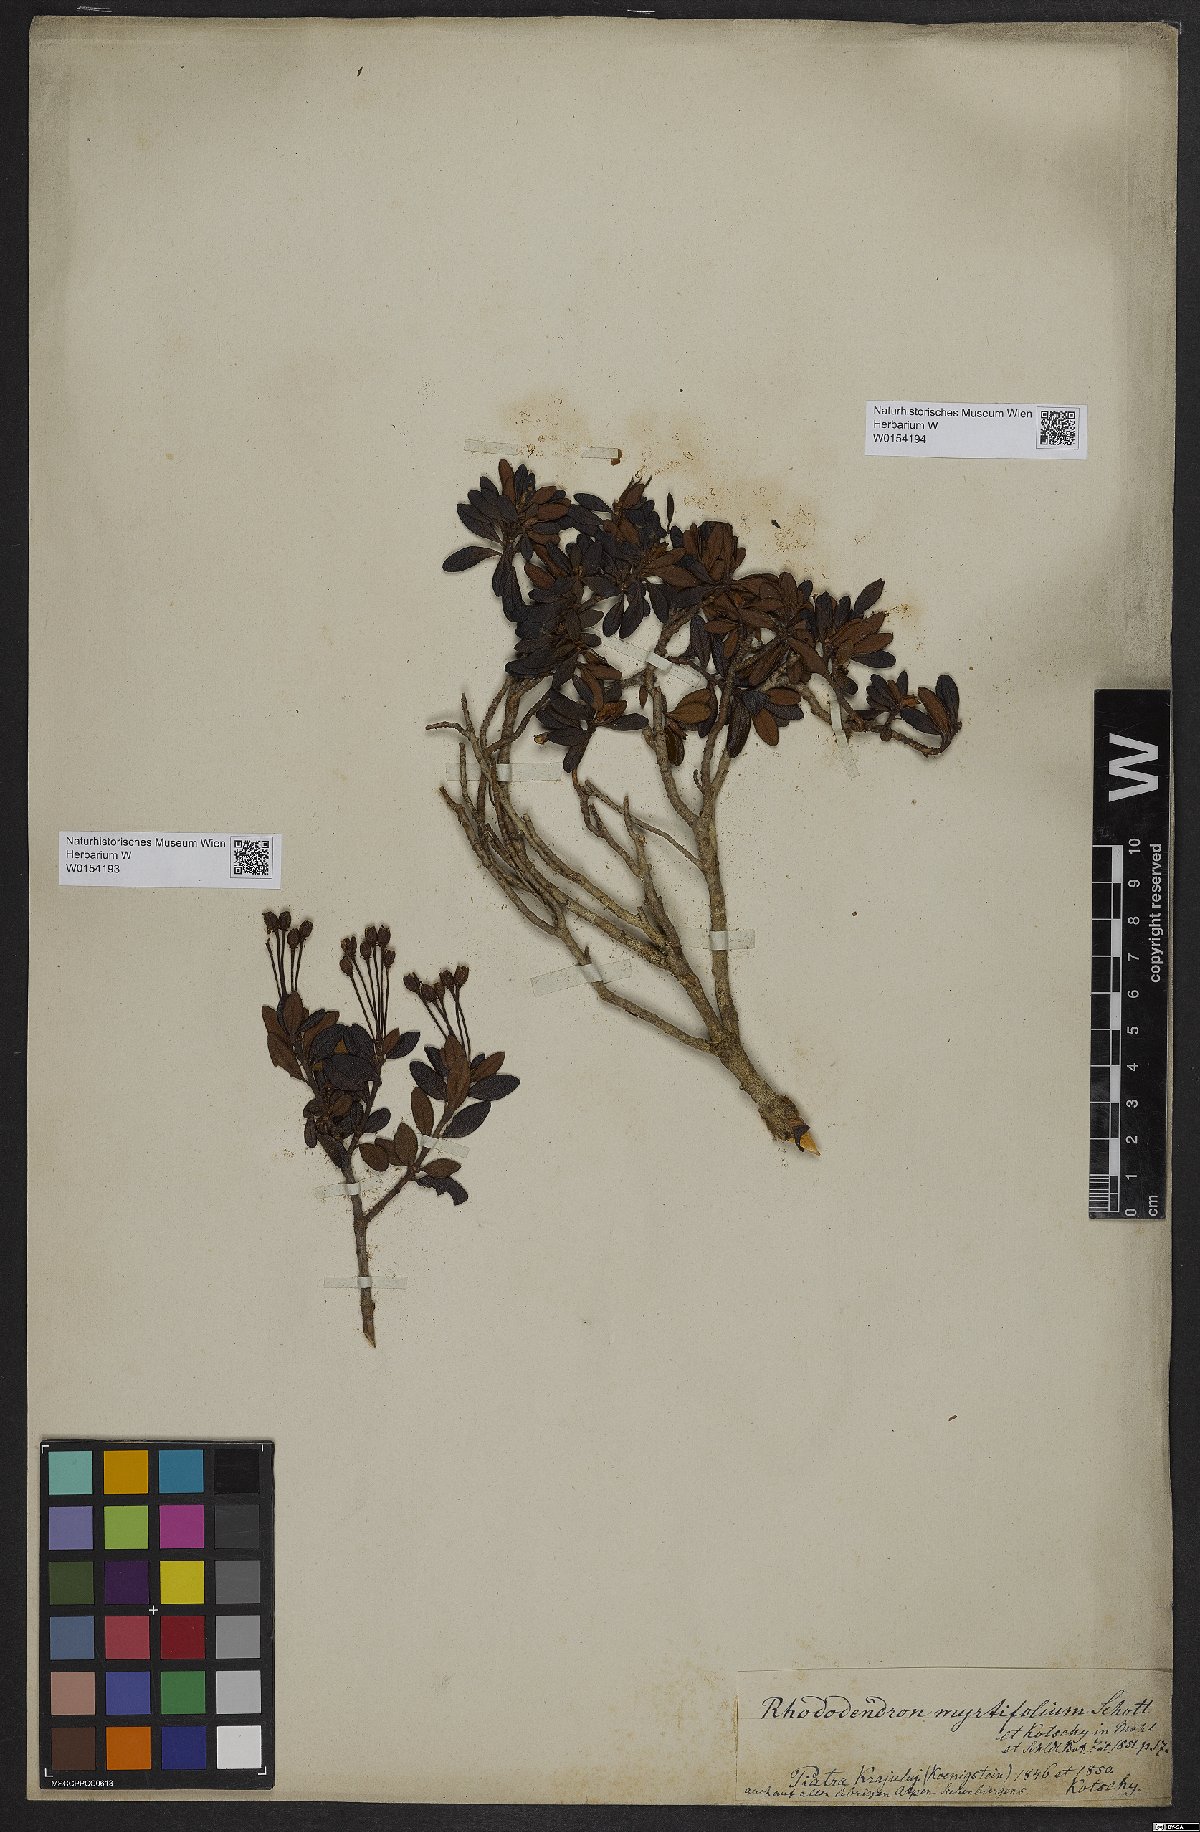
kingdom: Plantae
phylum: Tracheophyta
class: Magnoliopsida
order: Ericales
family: Ericaceae
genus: Rhododendron
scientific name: Rhododendron kotschyi
